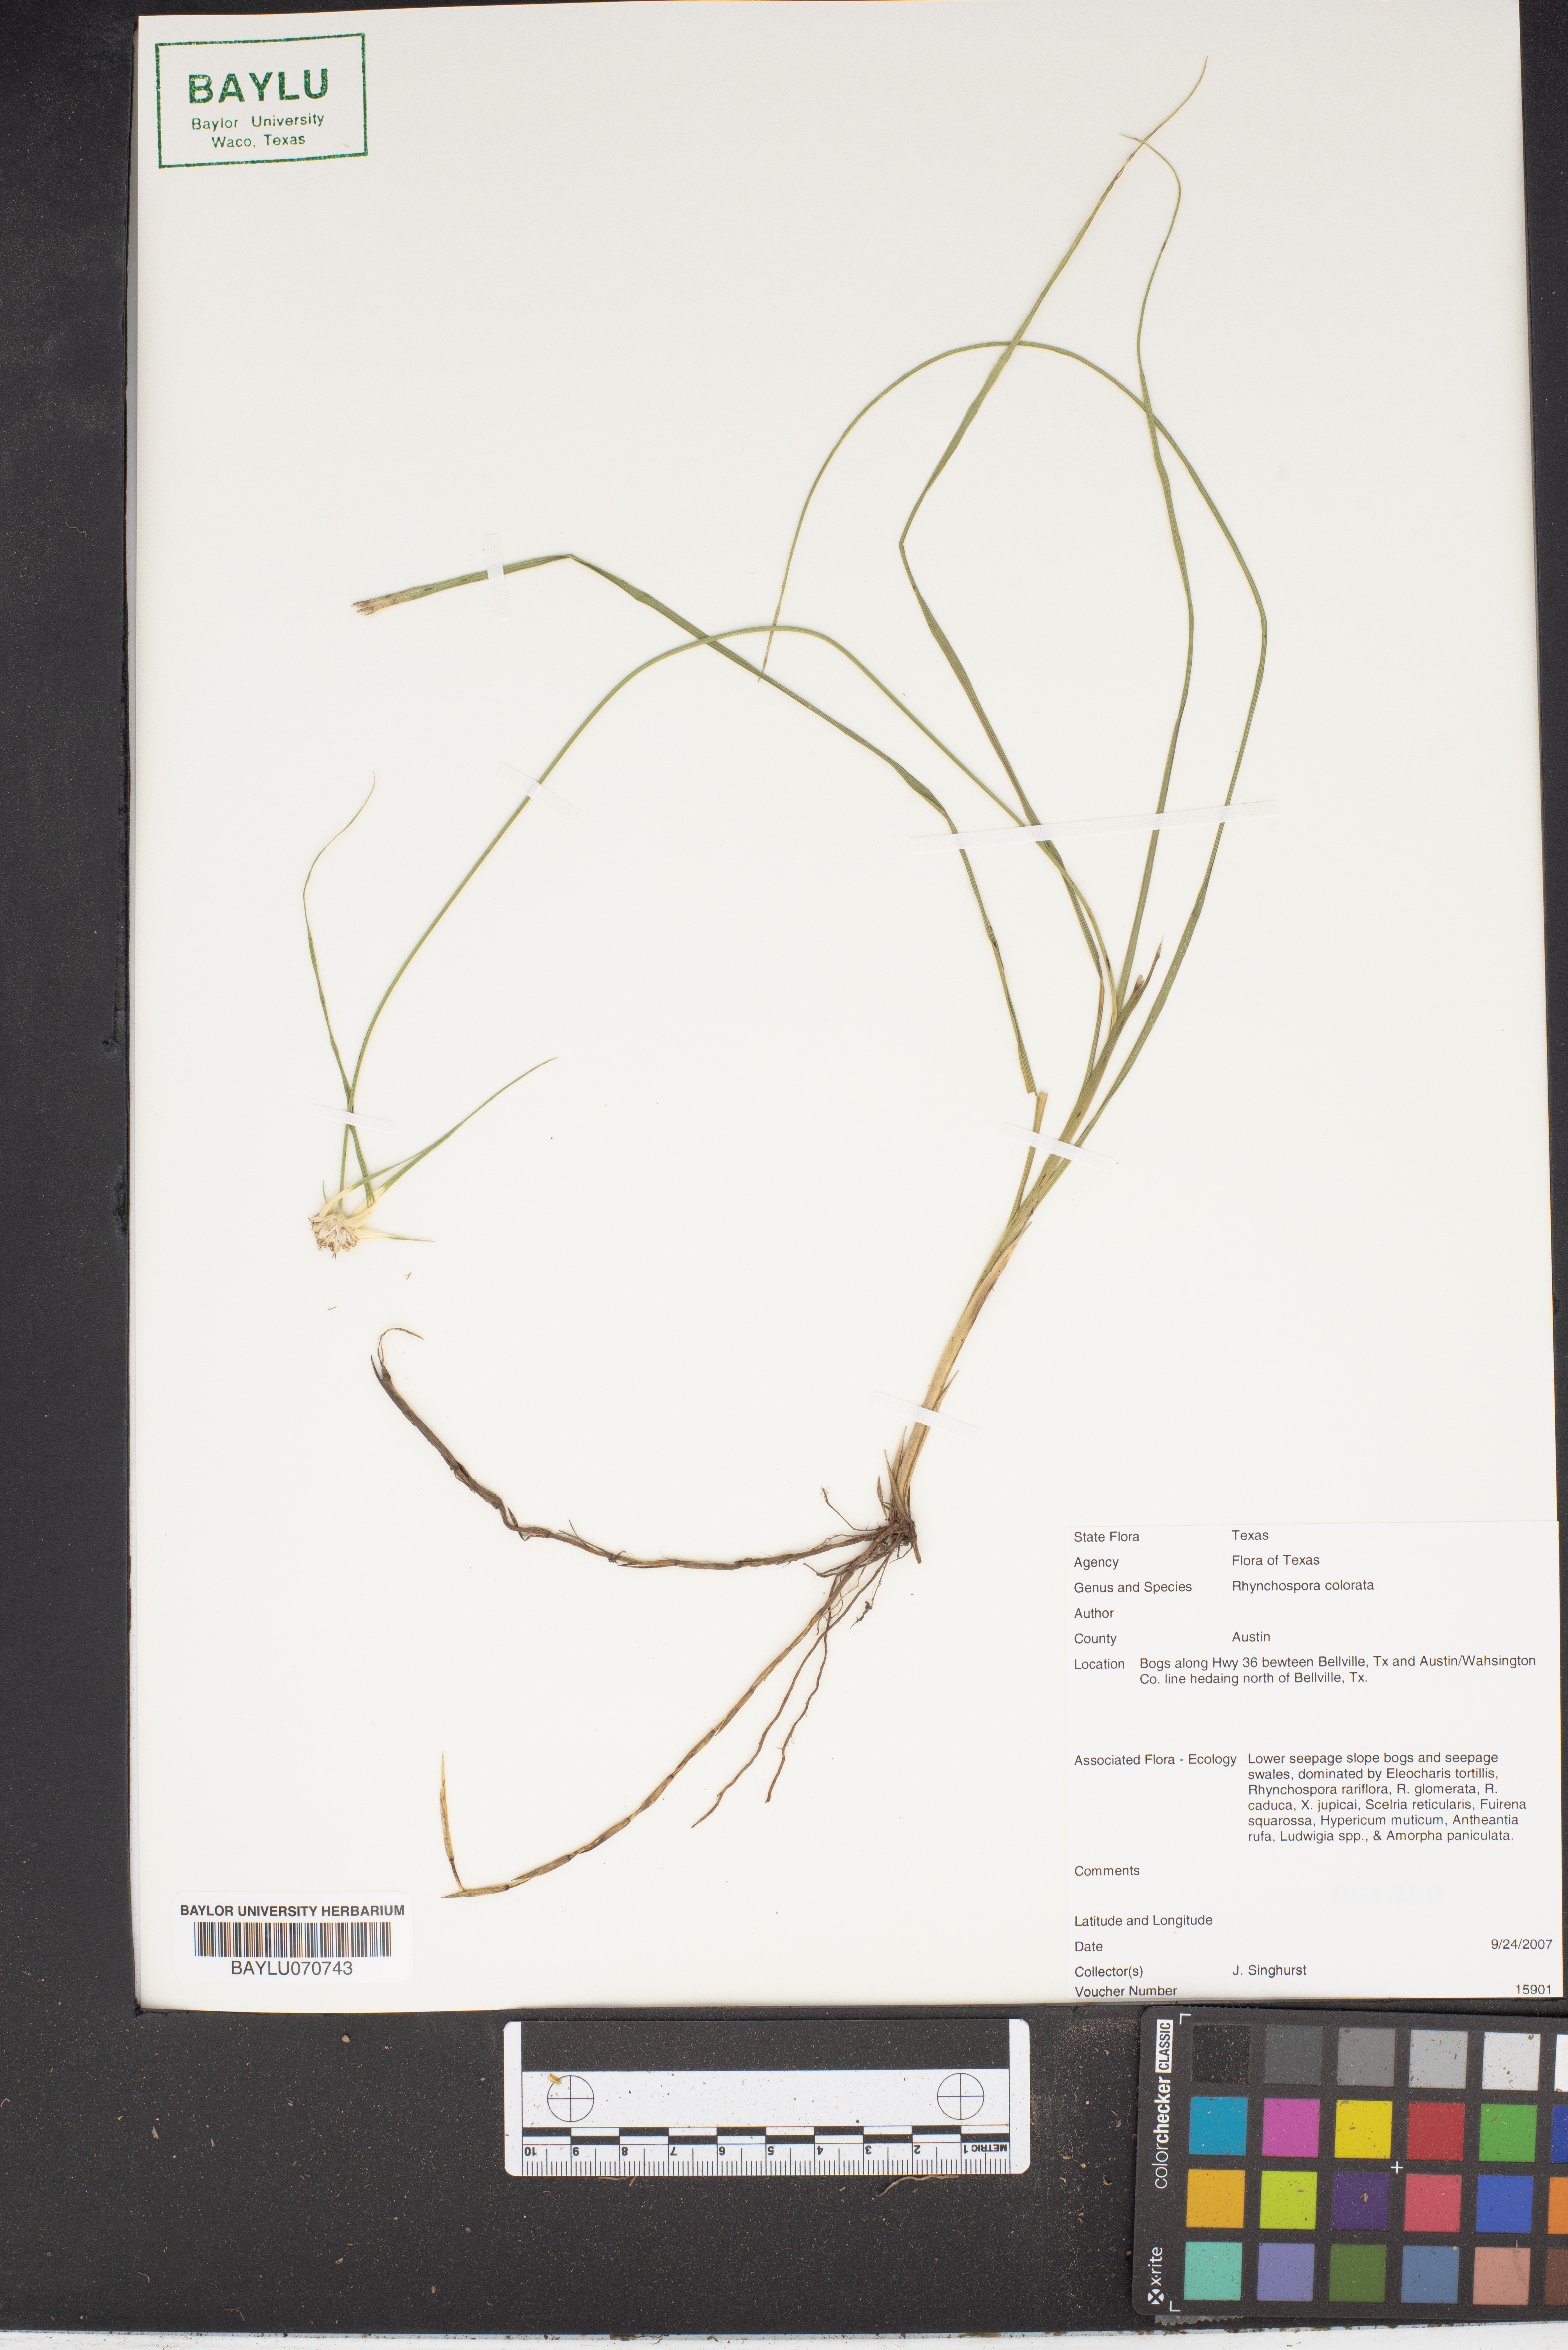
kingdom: Plantae
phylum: Tracheophyta
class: Liliopsida
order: Poales
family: Cyperaceae
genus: Rhynchospora
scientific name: Rhynchospora colorata
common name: Star sedge
